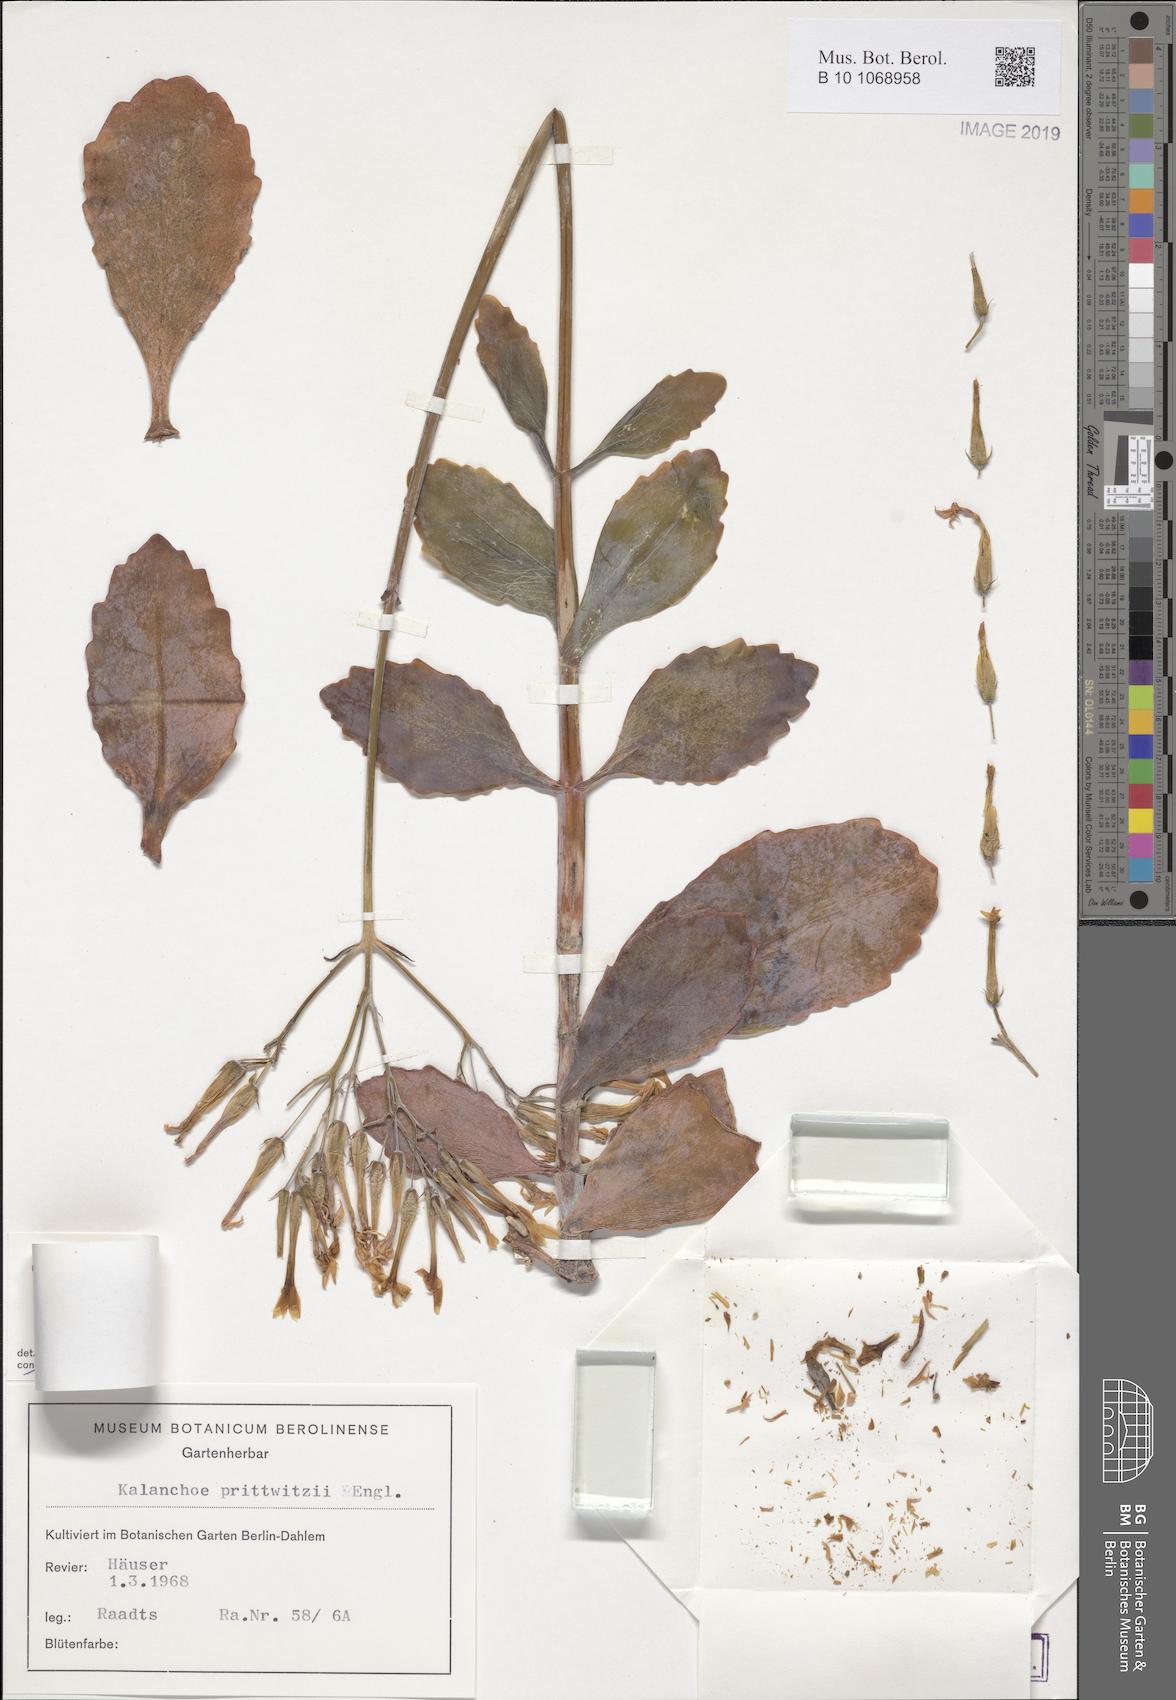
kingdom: Plantae
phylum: Tracheophyta
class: Magnoliopsida
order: Saxifragales
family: Crassulaceae
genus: Kalanchoe
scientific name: Kalanchoe prittwitzii
